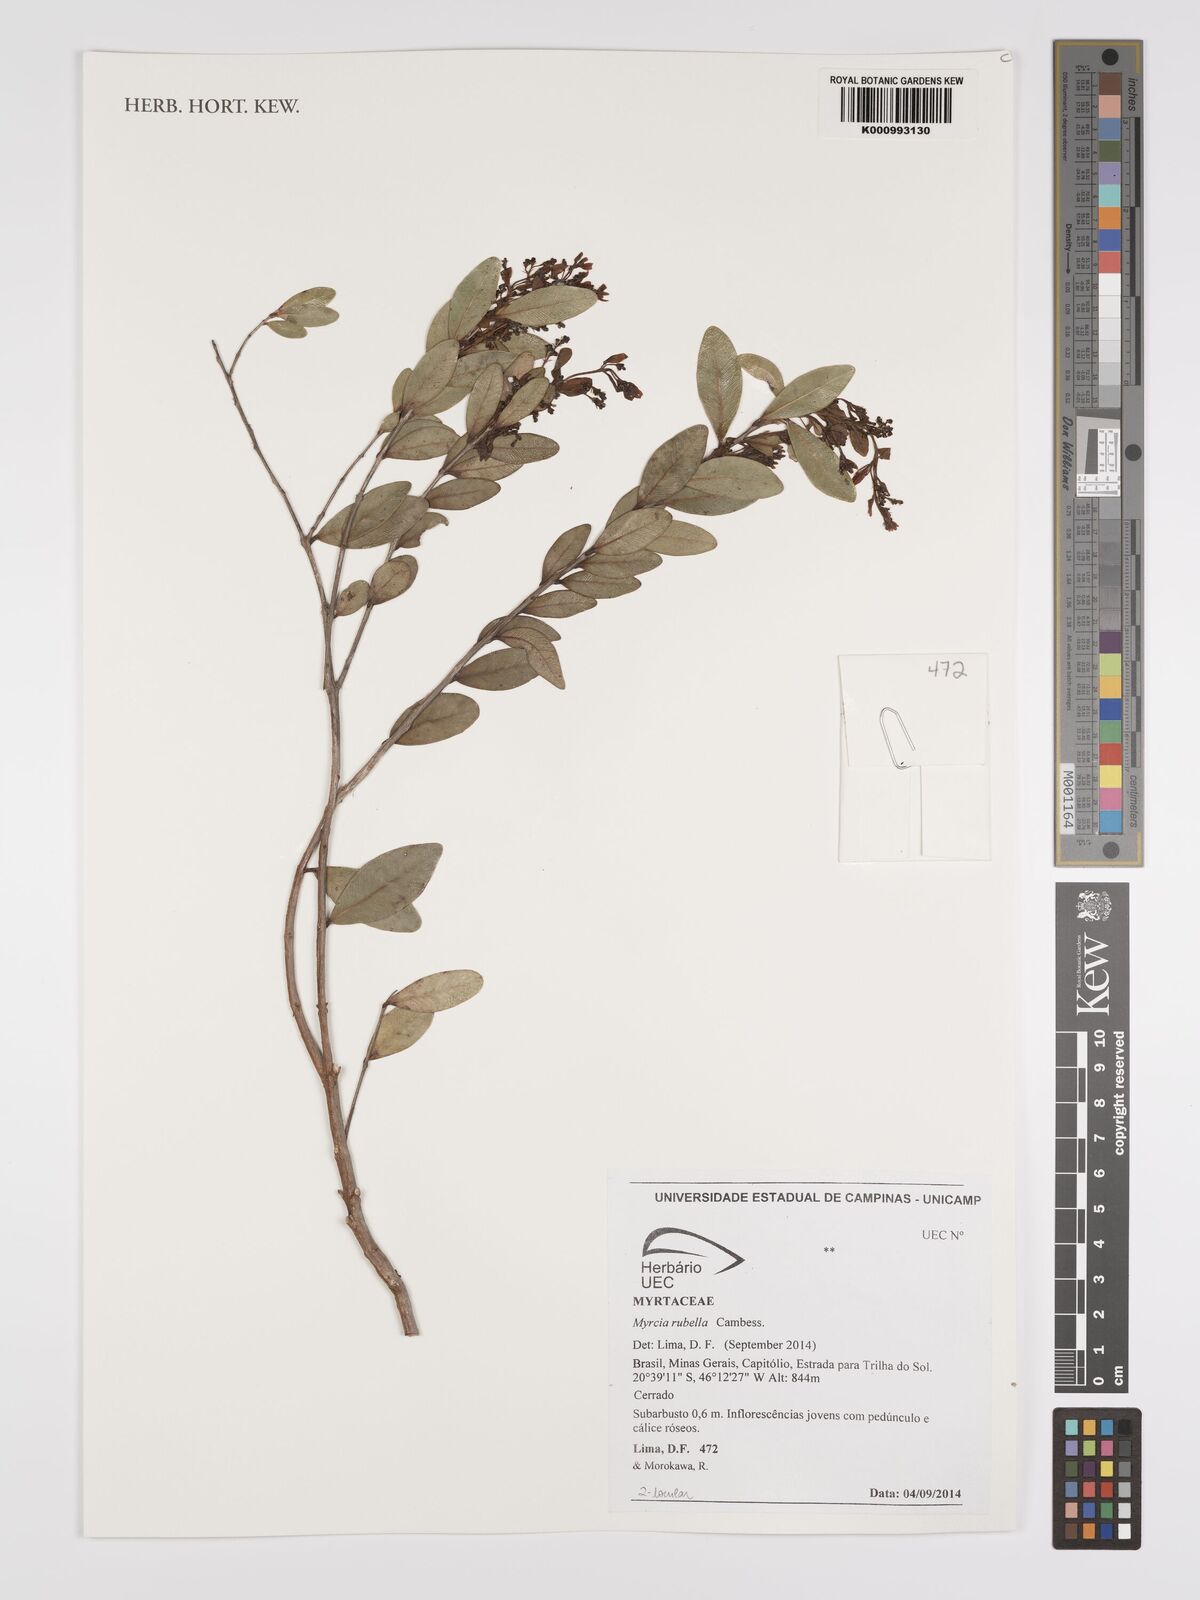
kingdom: Plantae
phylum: Tracheophyta
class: Magnoliopsida
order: Myrtales
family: Myrtaceae
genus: Myrcia
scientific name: Myrcia guianensis
